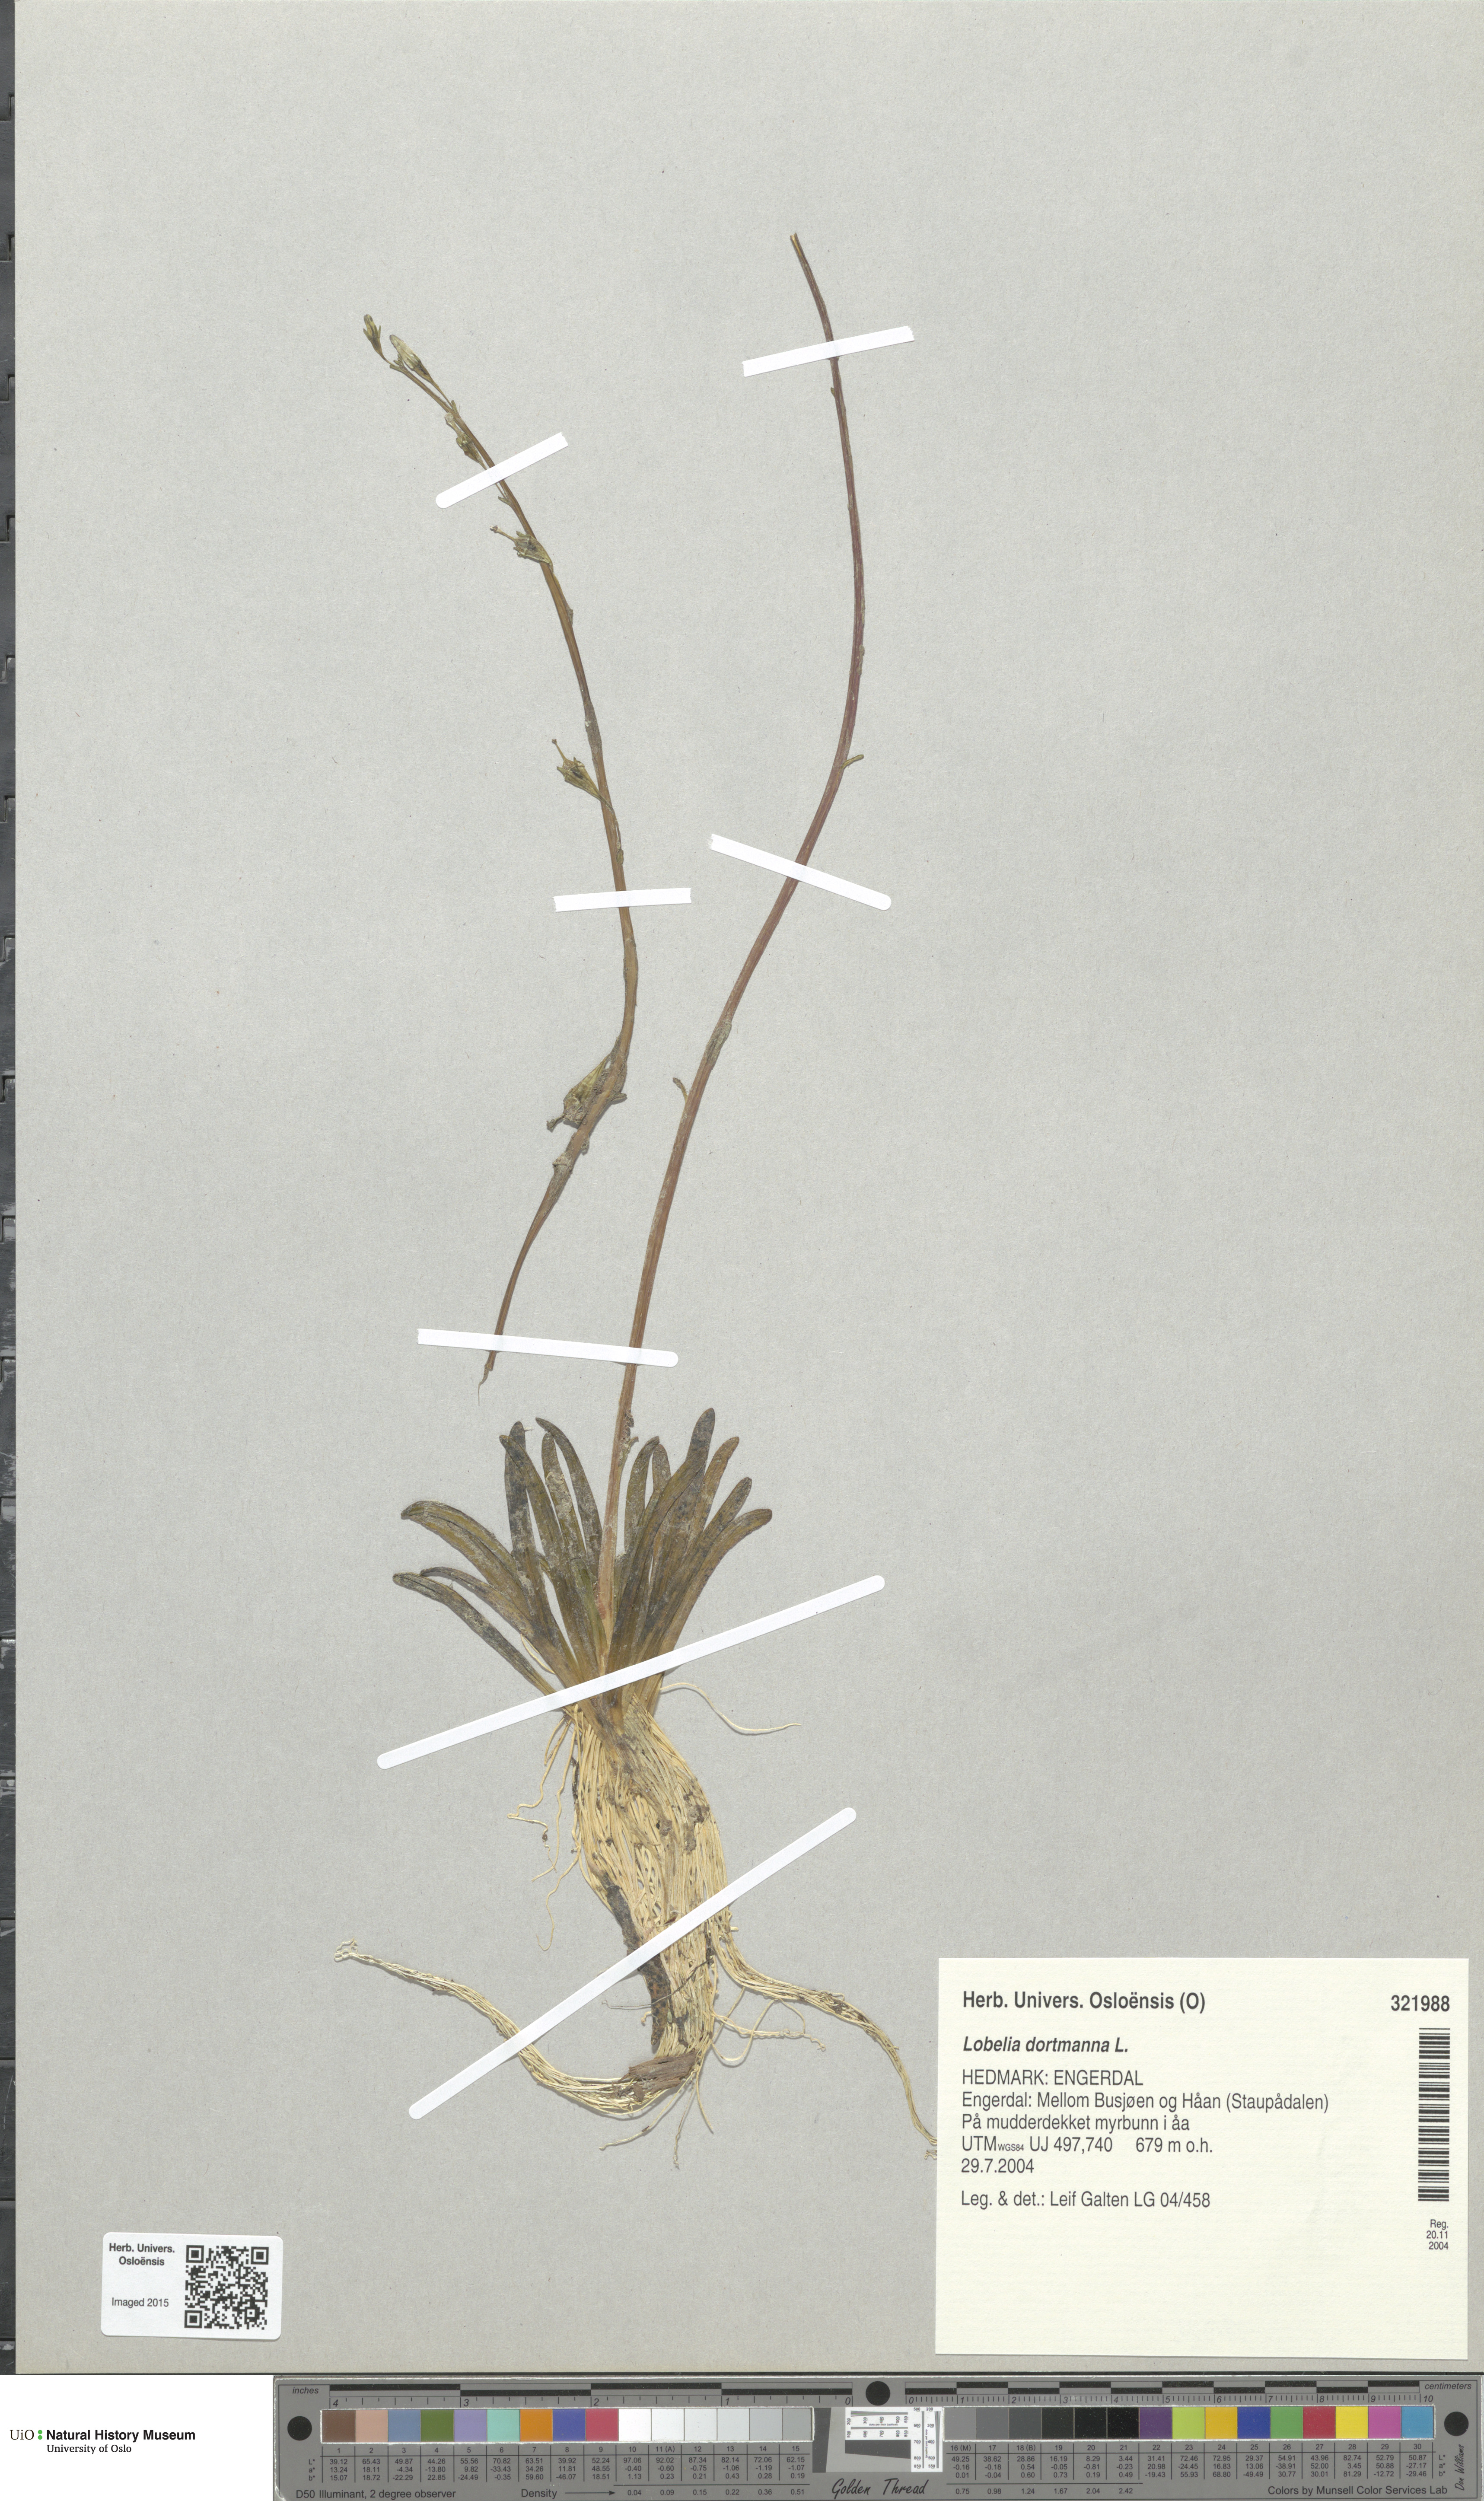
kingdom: Plantae
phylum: Tracheophyta
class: Magnoliopsida
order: Asterales
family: Campanulaceae
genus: Lobelia
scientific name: Lobelia dortmanna
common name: Water lobelia
